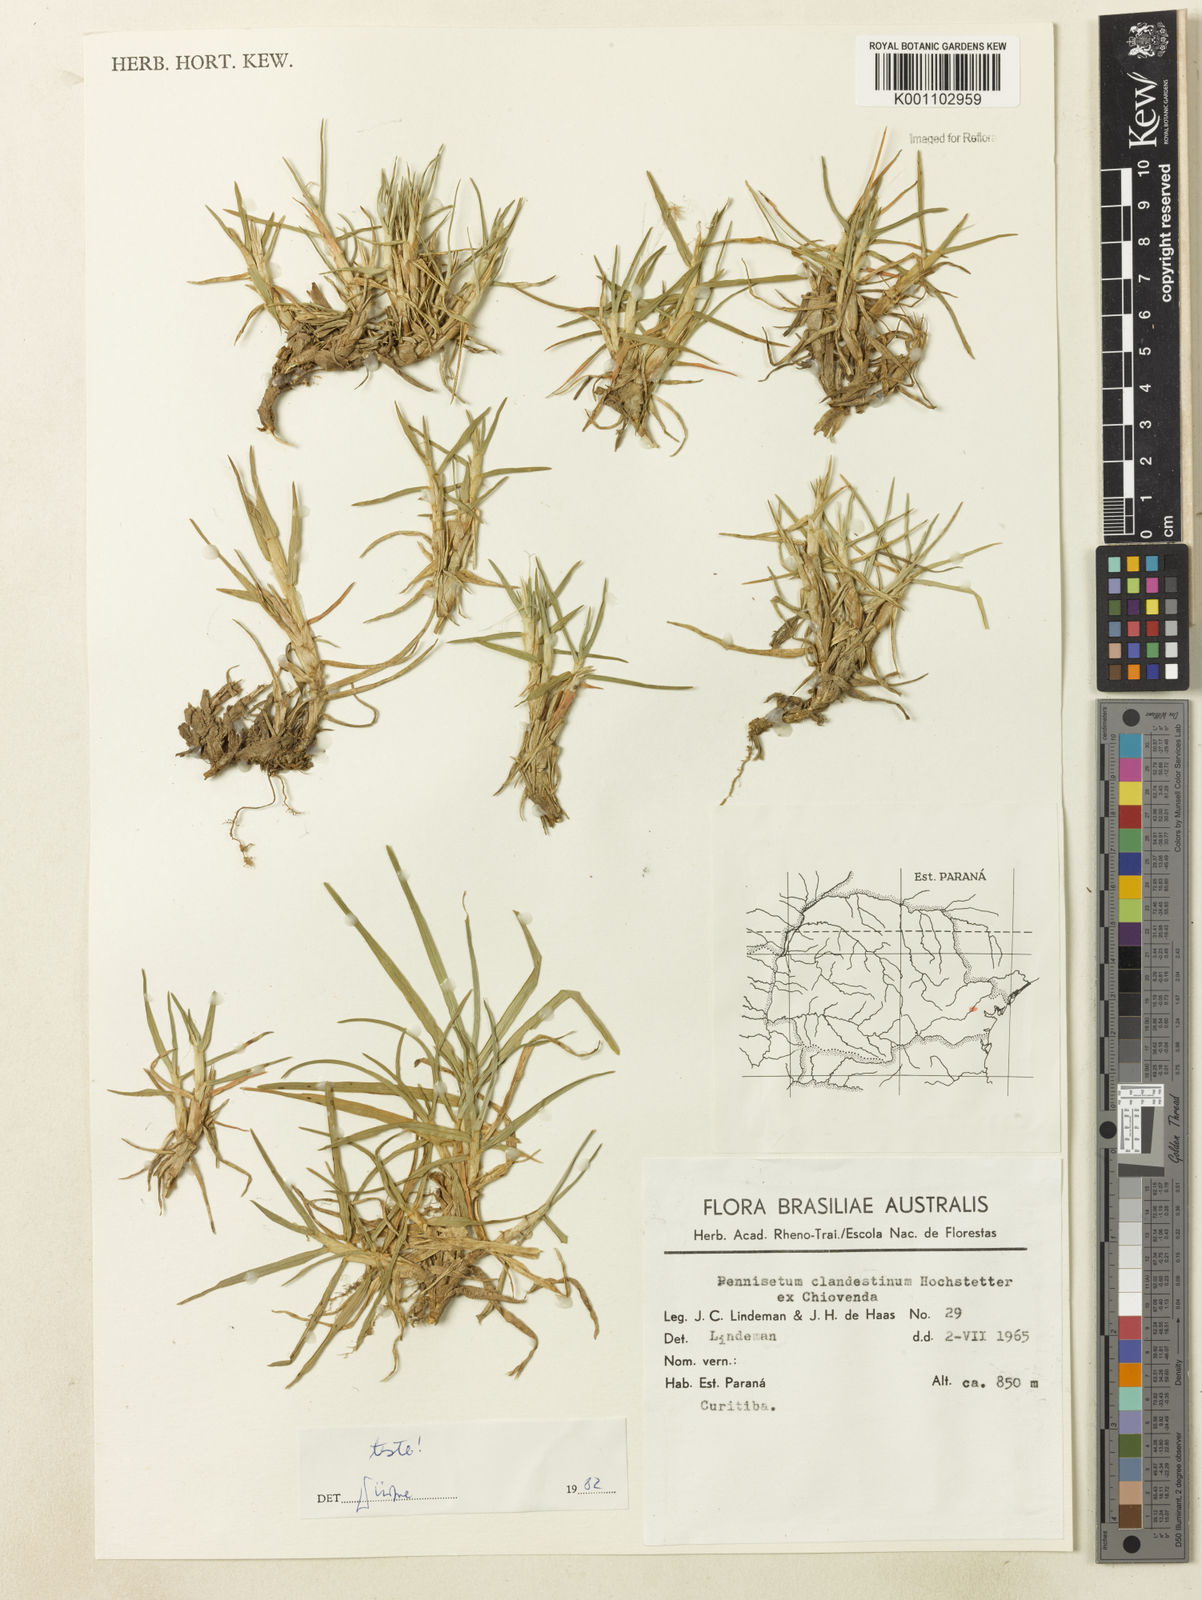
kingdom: Plantae
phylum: Tracheophyta
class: Liliopsida
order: Poales
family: Poaceae
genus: Cenchrus
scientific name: Cenchrus clandestinus
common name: Kikuyugrass
